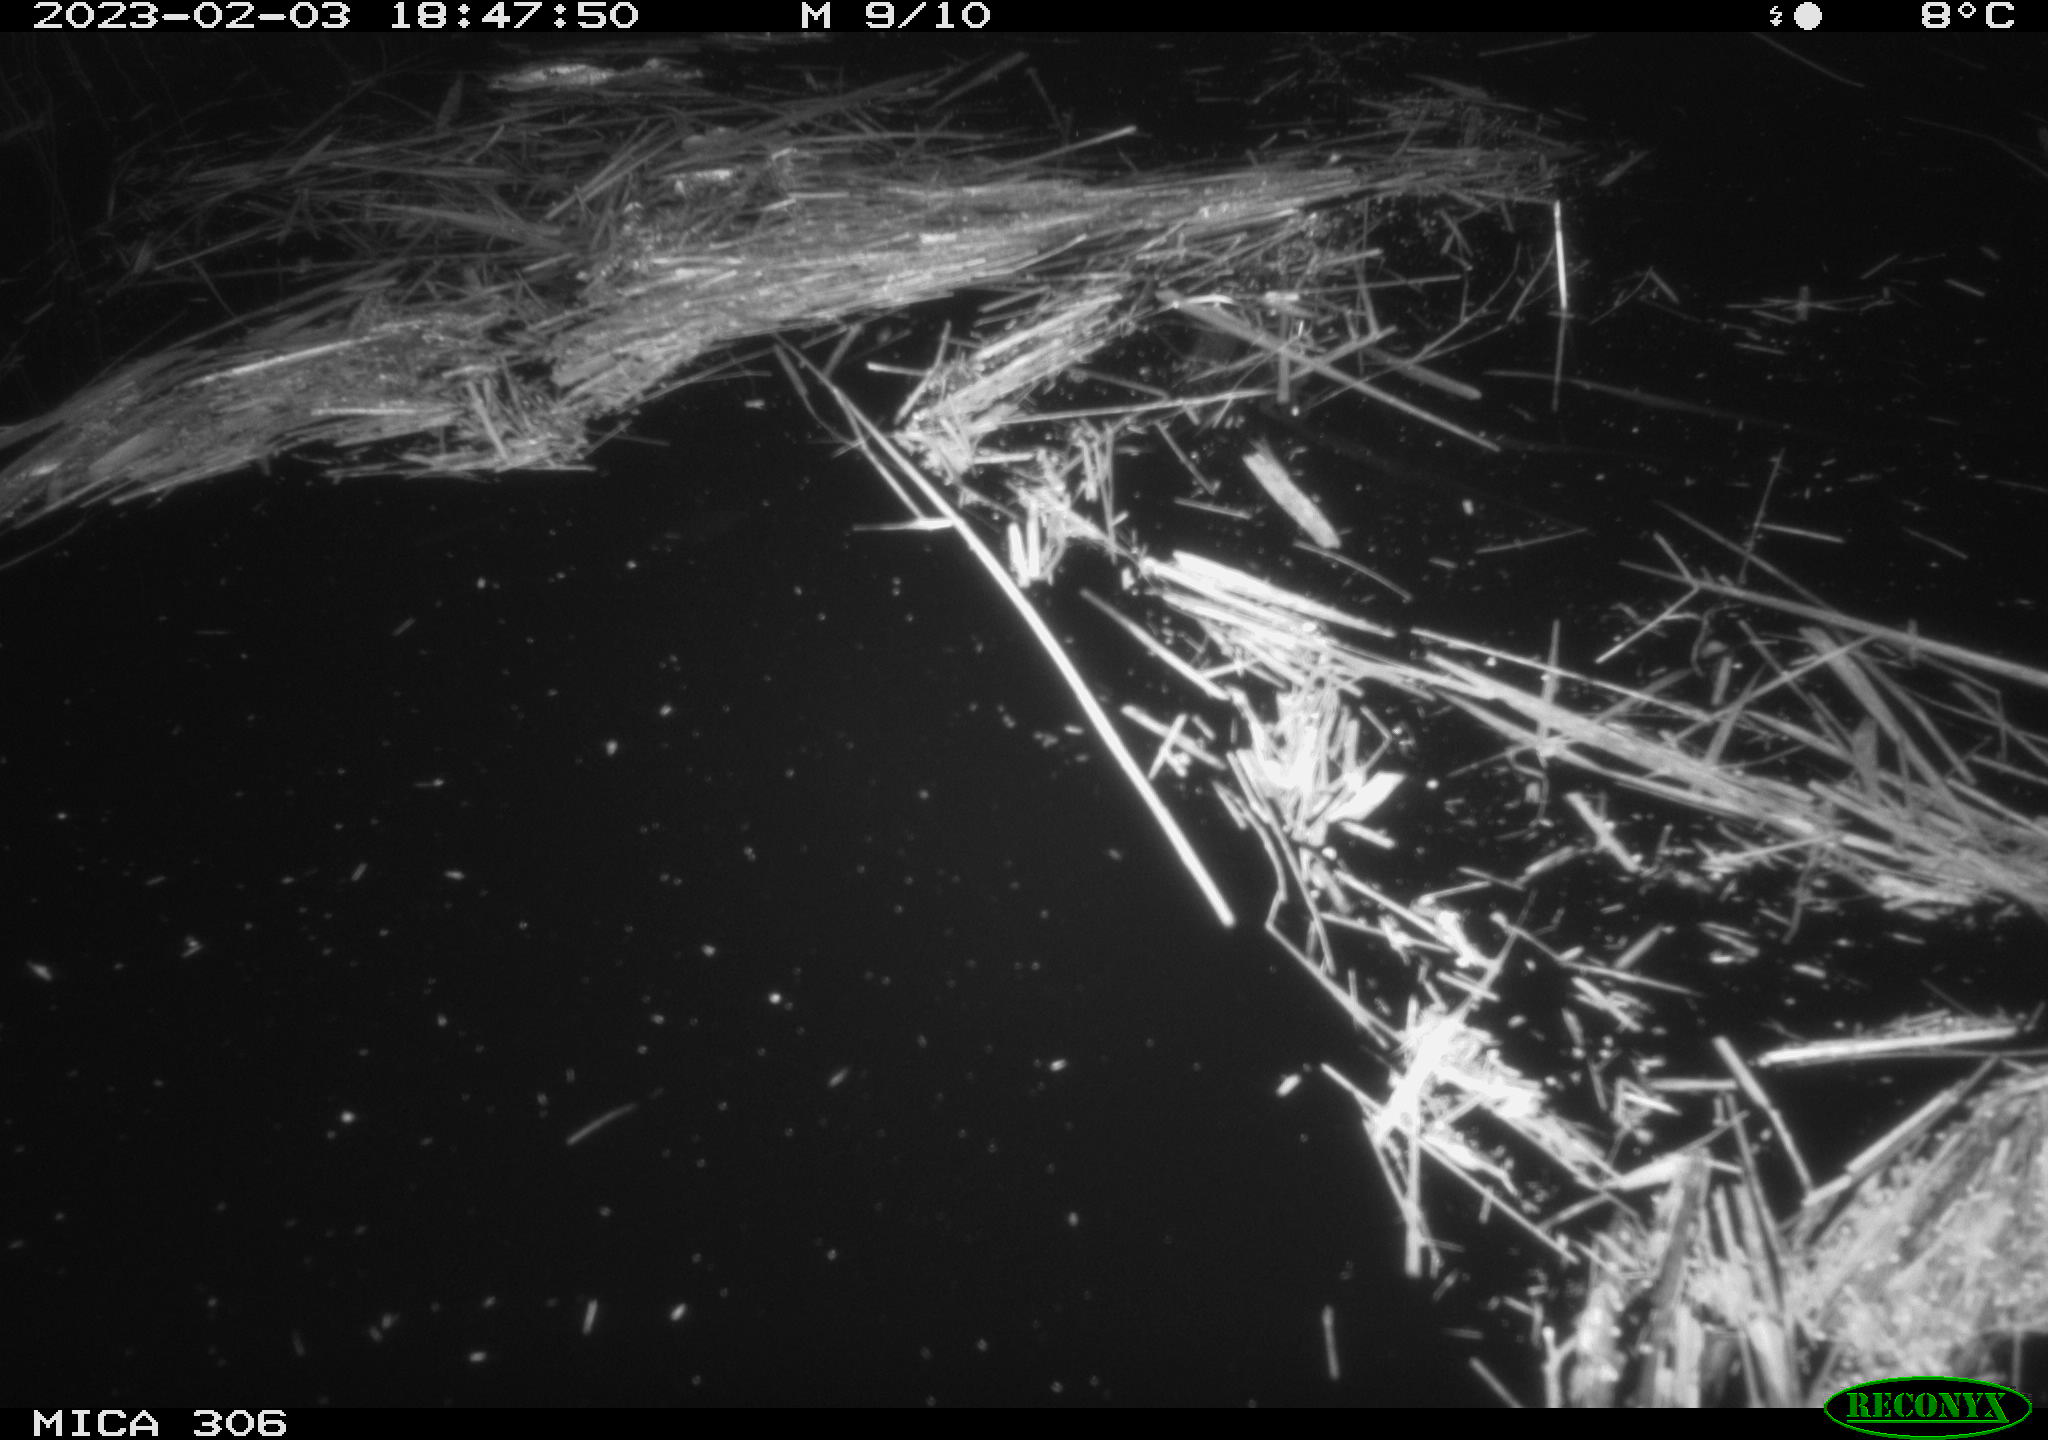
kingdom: Animalia
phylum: Chordata
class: Aves
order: Gruiformes
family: Rallidae
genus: Gallinula
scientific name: Gallinula chloropus
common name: Common moorhen
